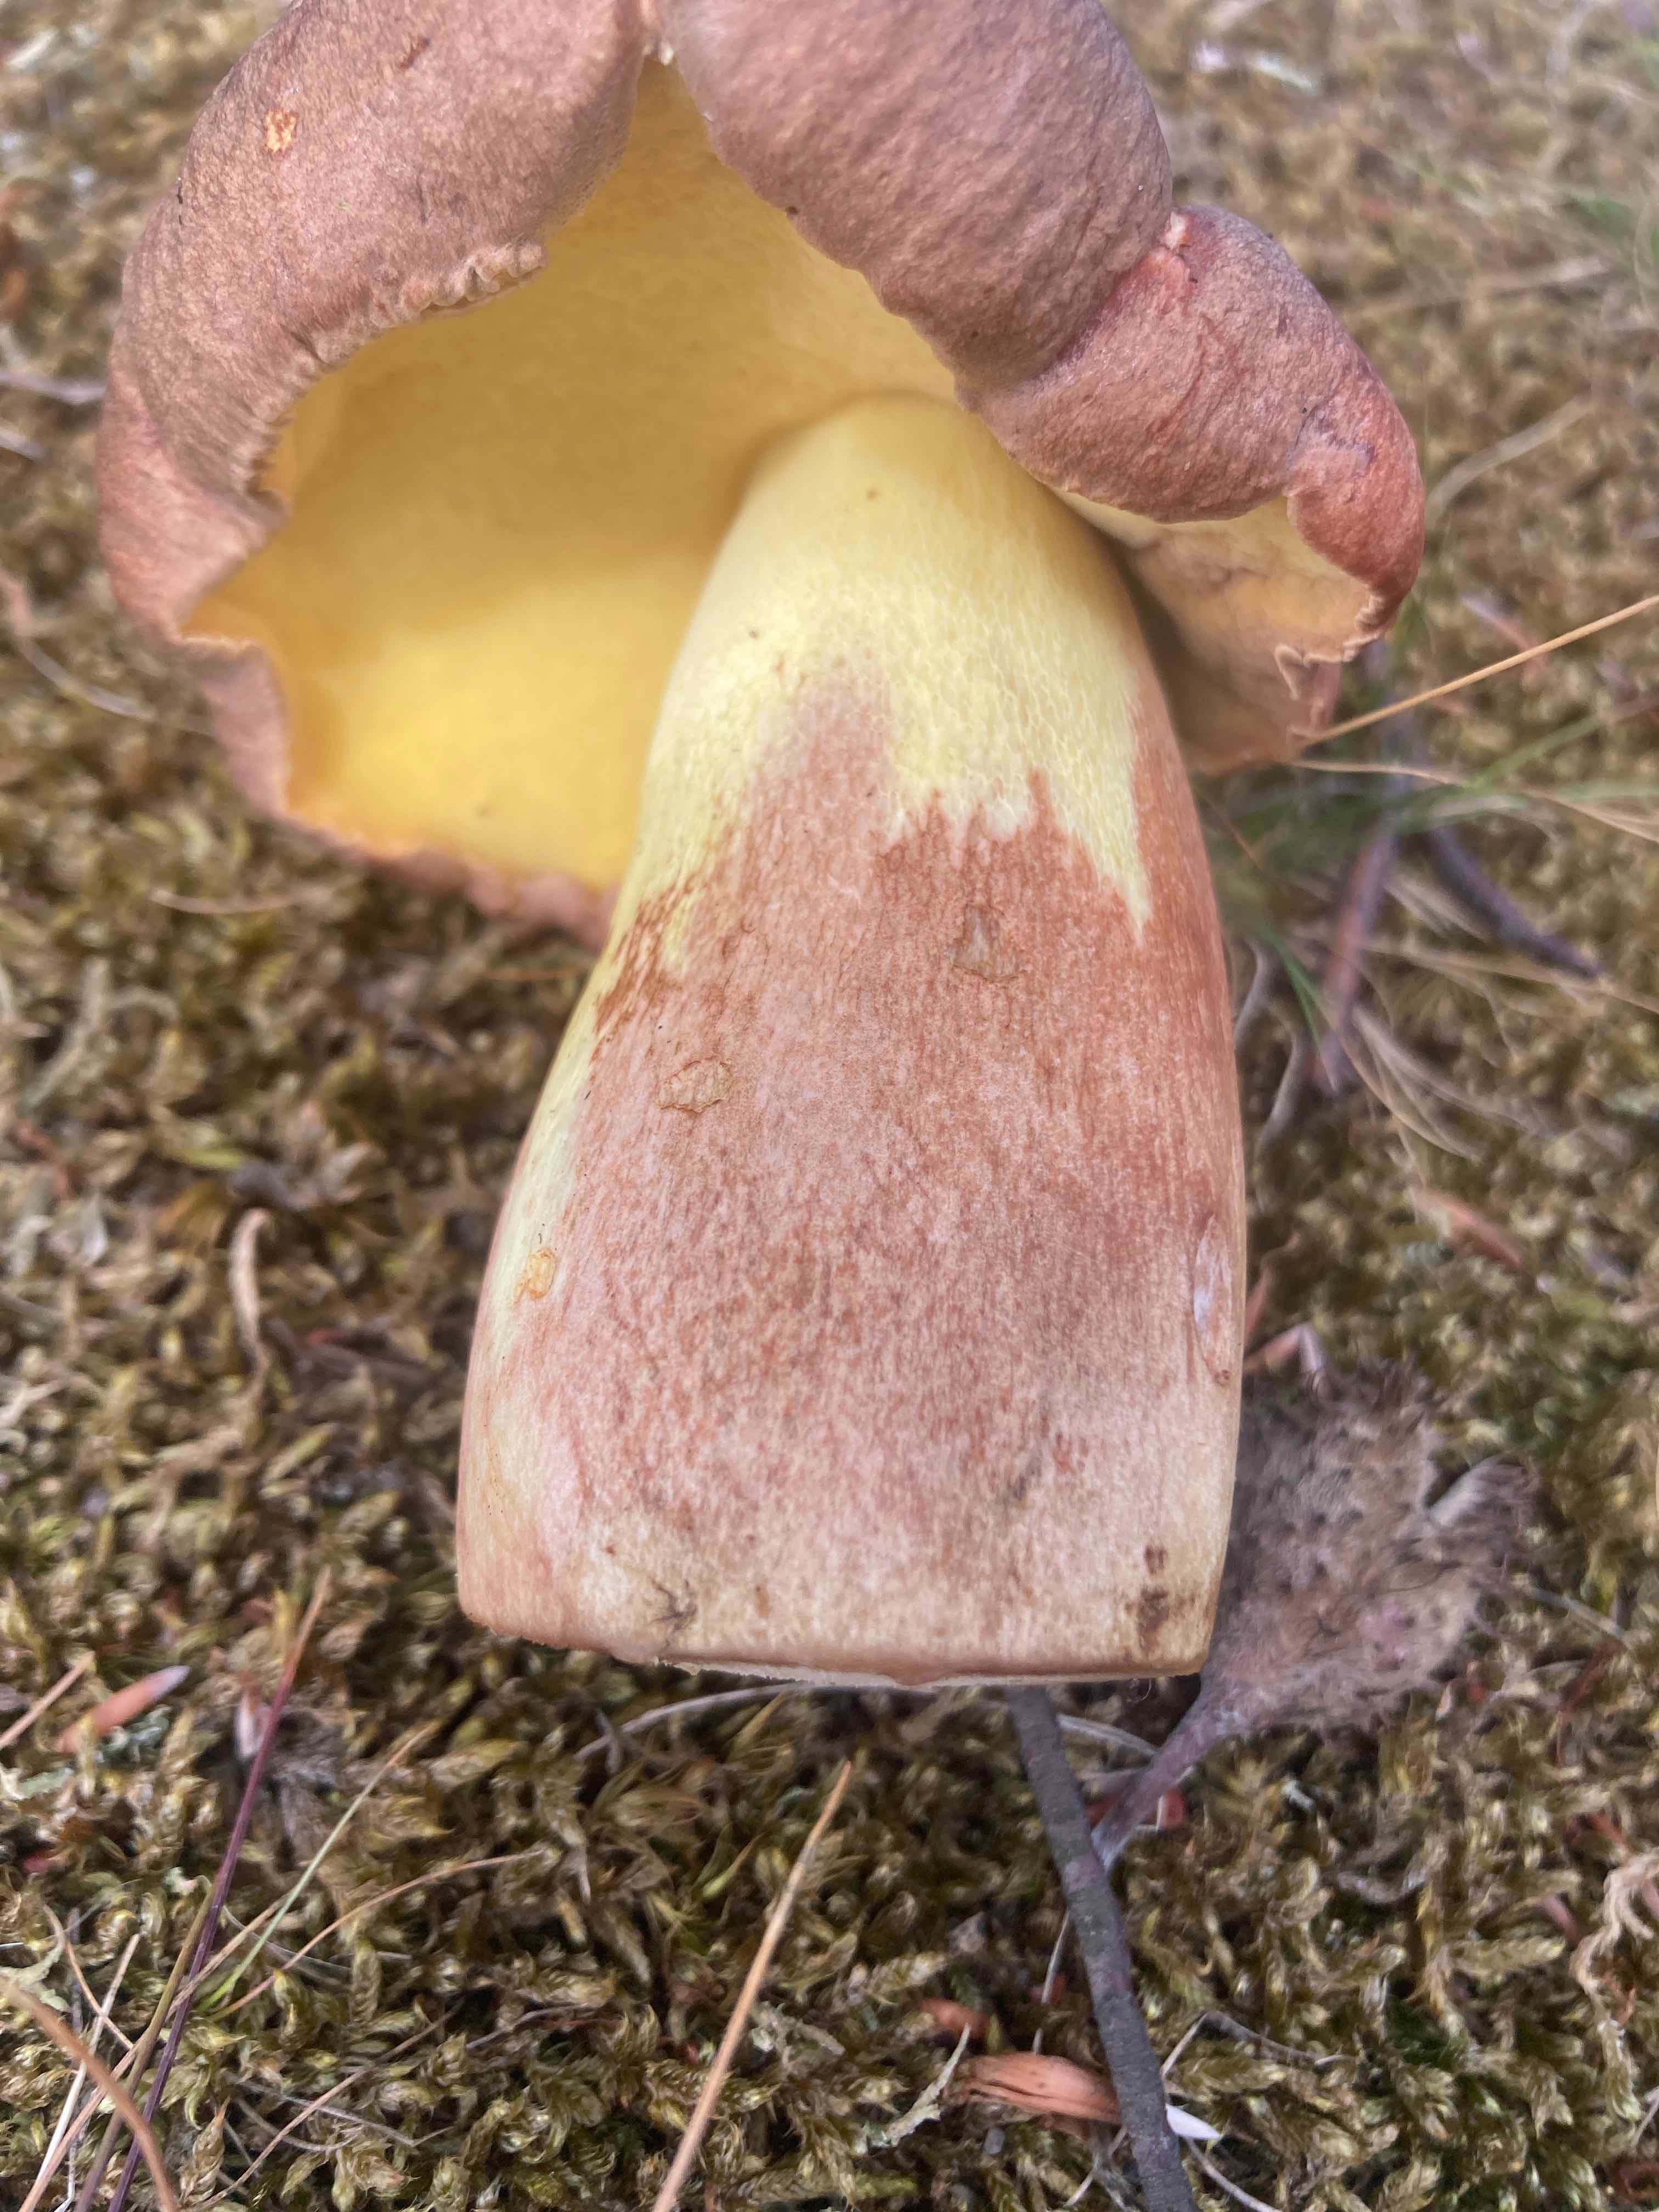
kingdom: Fungi
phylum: Basidiomycota
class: Agaricomycetes
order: Boletales
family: Boletaceae
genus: Butyriboletus
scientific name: Butyriboletus appendiculatus
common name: tenstokket rørhat
